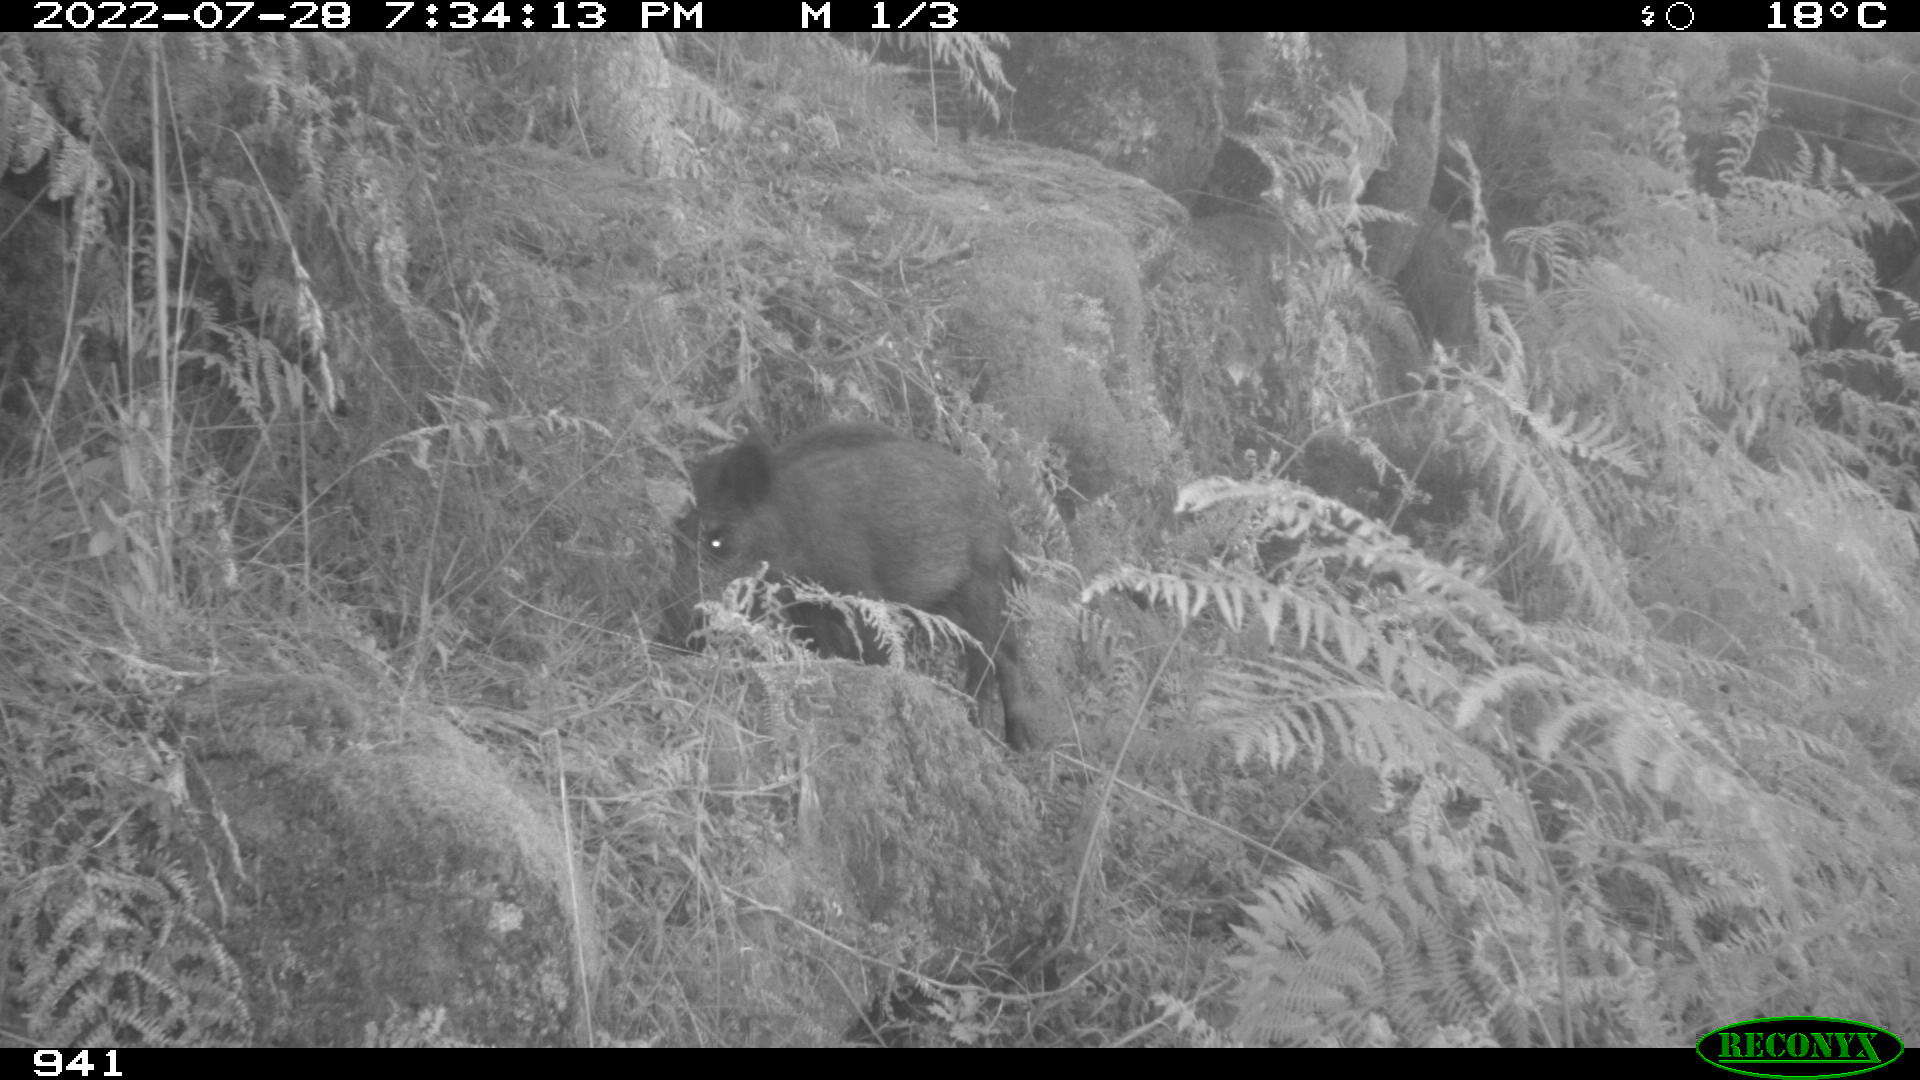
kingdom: Animalia
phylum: Chordata
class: Mammalia
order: Artiodactyla
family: Suidae
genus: Sus
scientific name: Sus scrofa
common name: Wild boar
